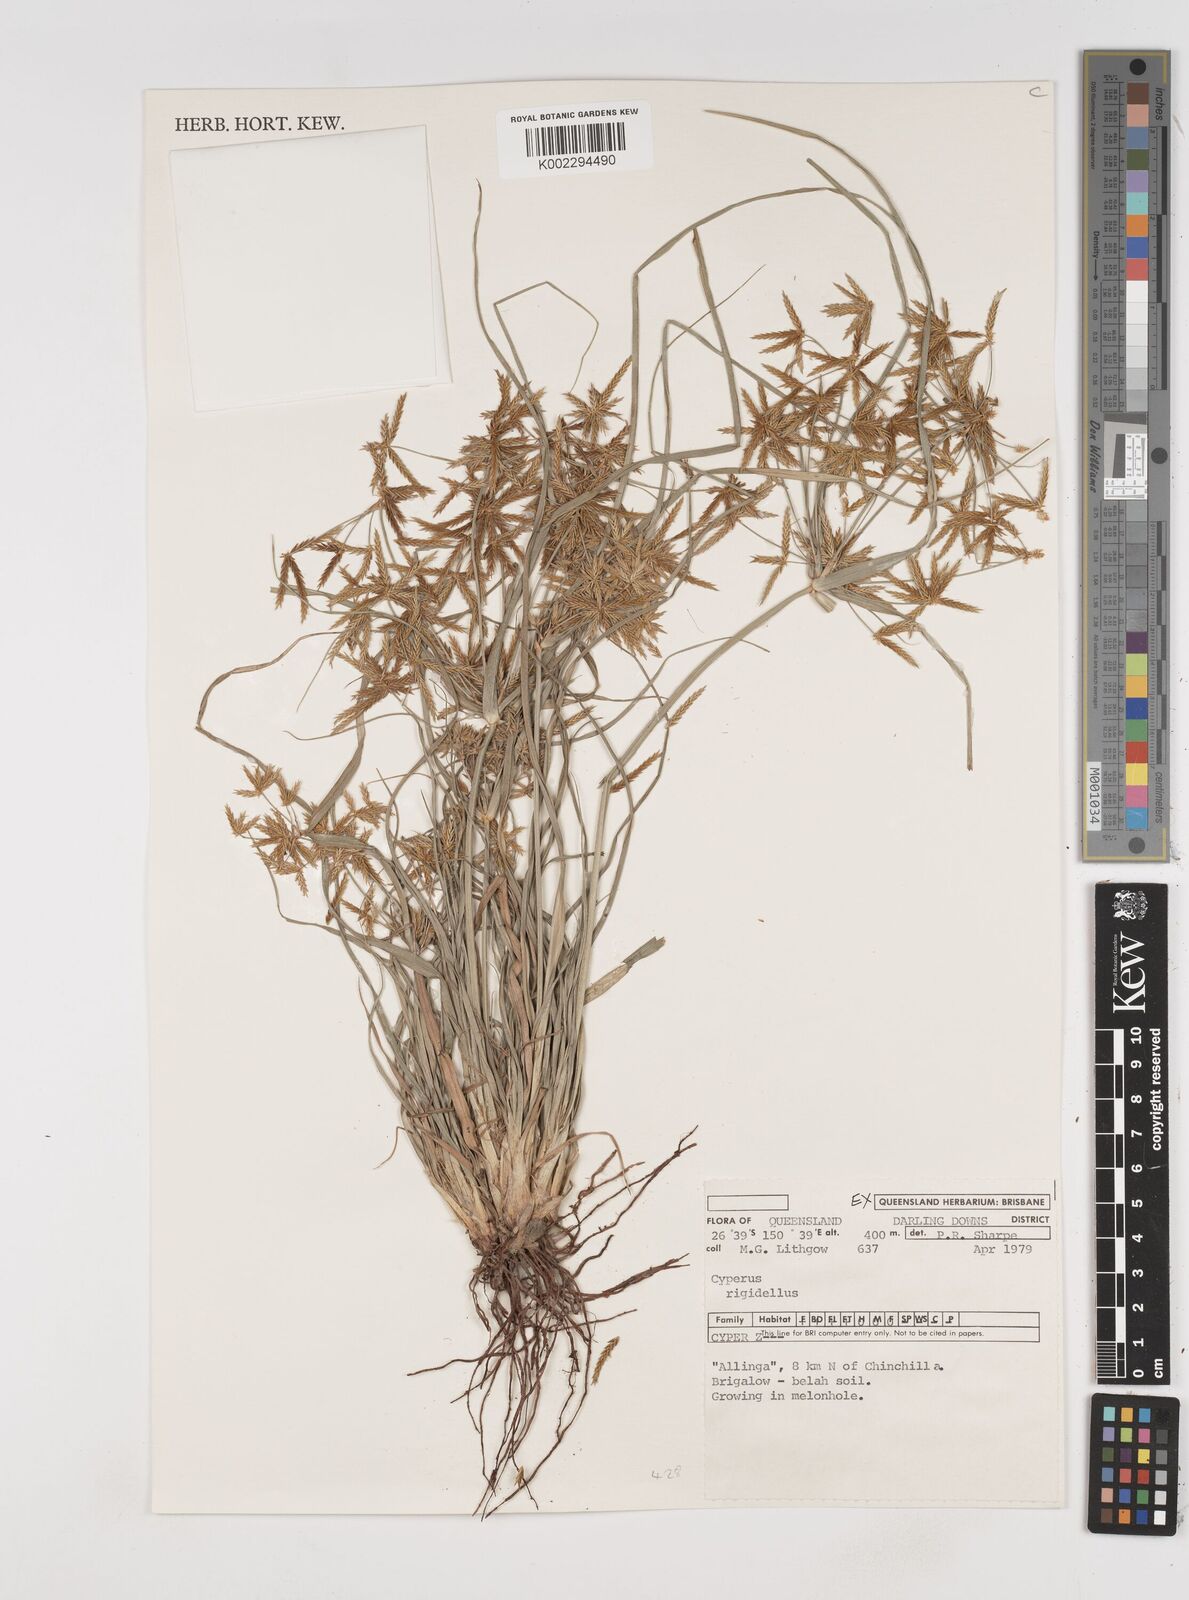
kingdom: Plantae
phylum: Tracheophyta
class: Liliopsida
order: Poales
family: Cyperaceae
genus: Cyperus
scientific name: Cyperus rigidellus
